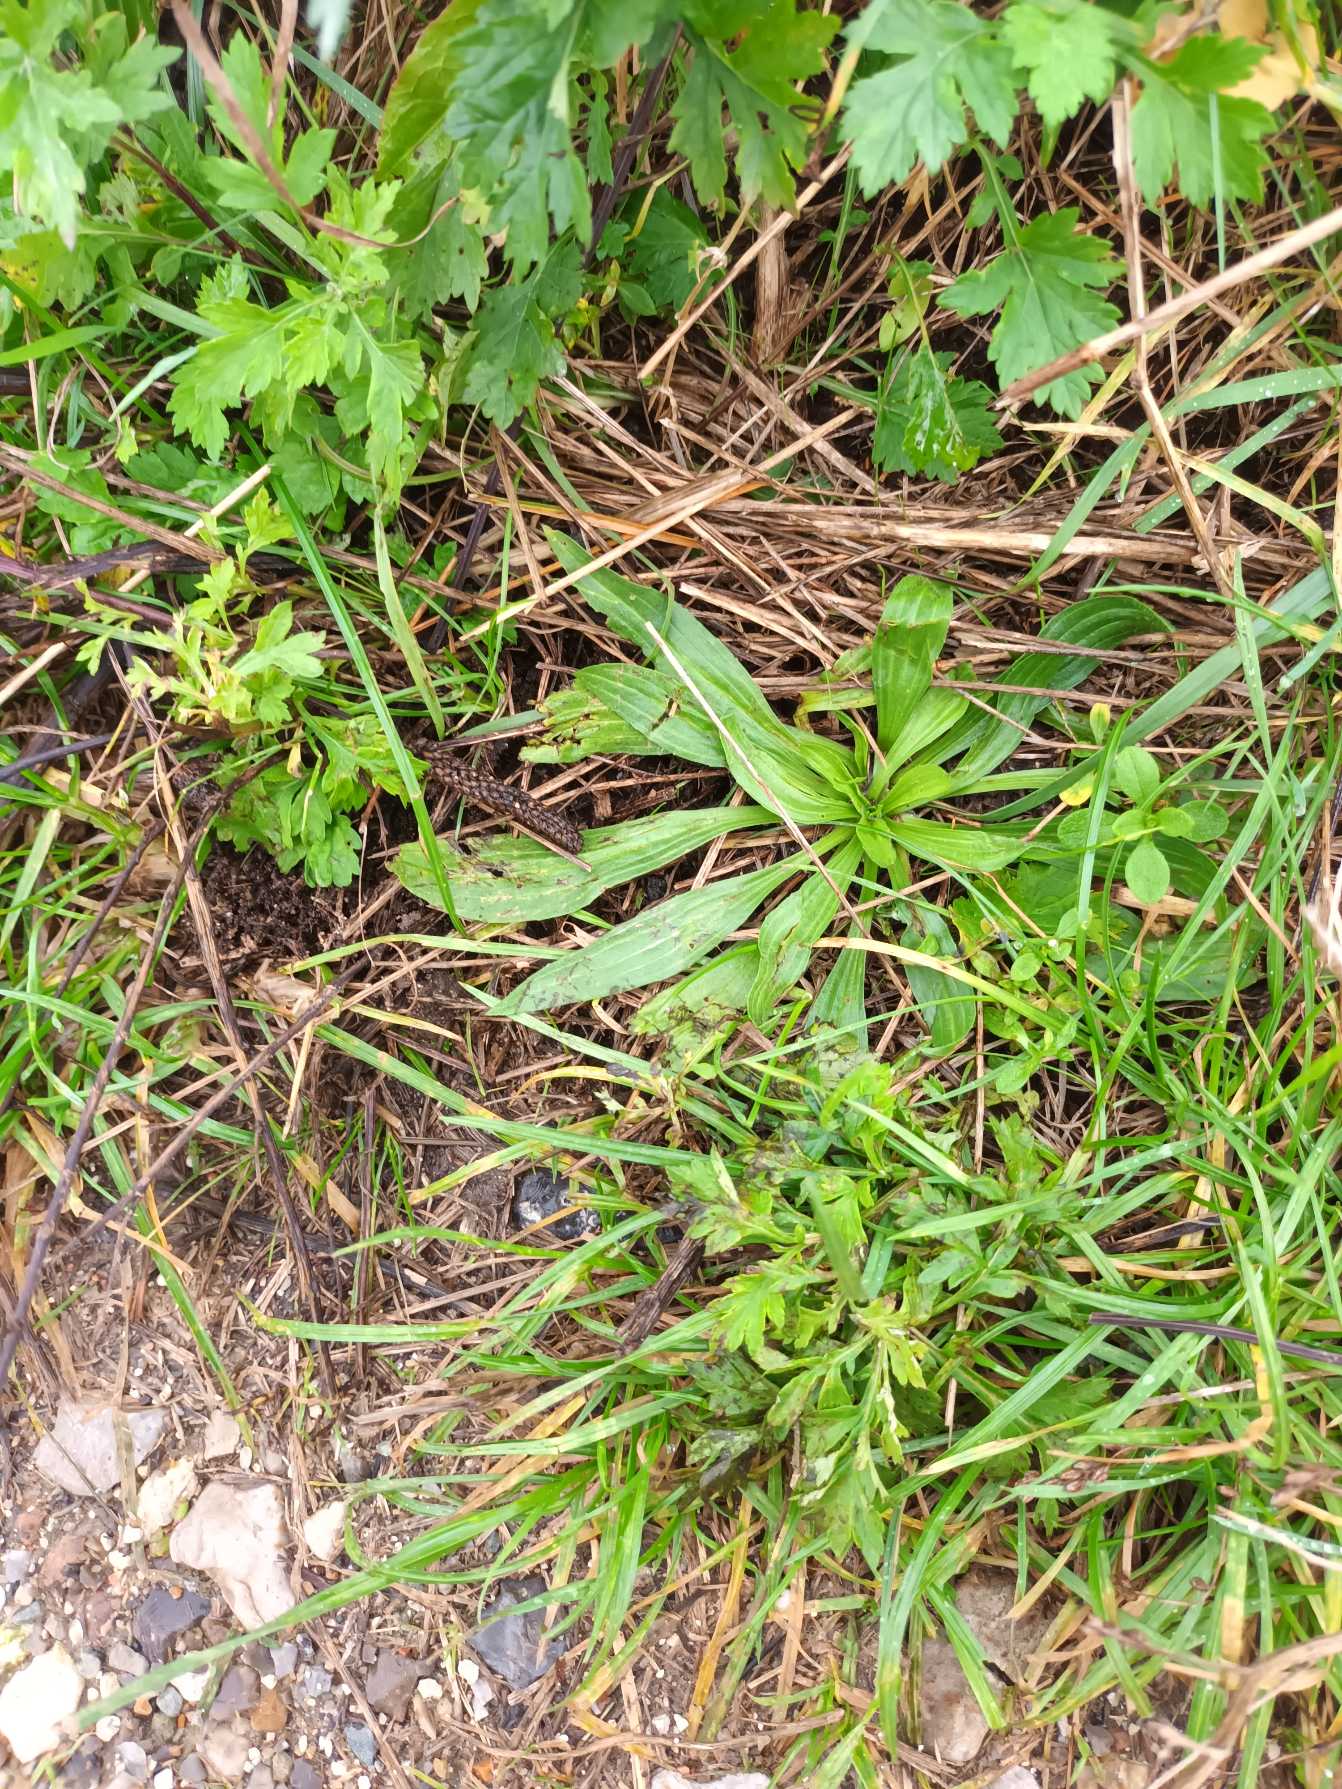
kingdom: Plantae
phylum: Tracheophyta
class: Magnoliopsida
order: Lamiales
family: Plantaginaceae
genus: Plantago
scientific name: Plantago lanceolata
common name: Lancet-vejbred
